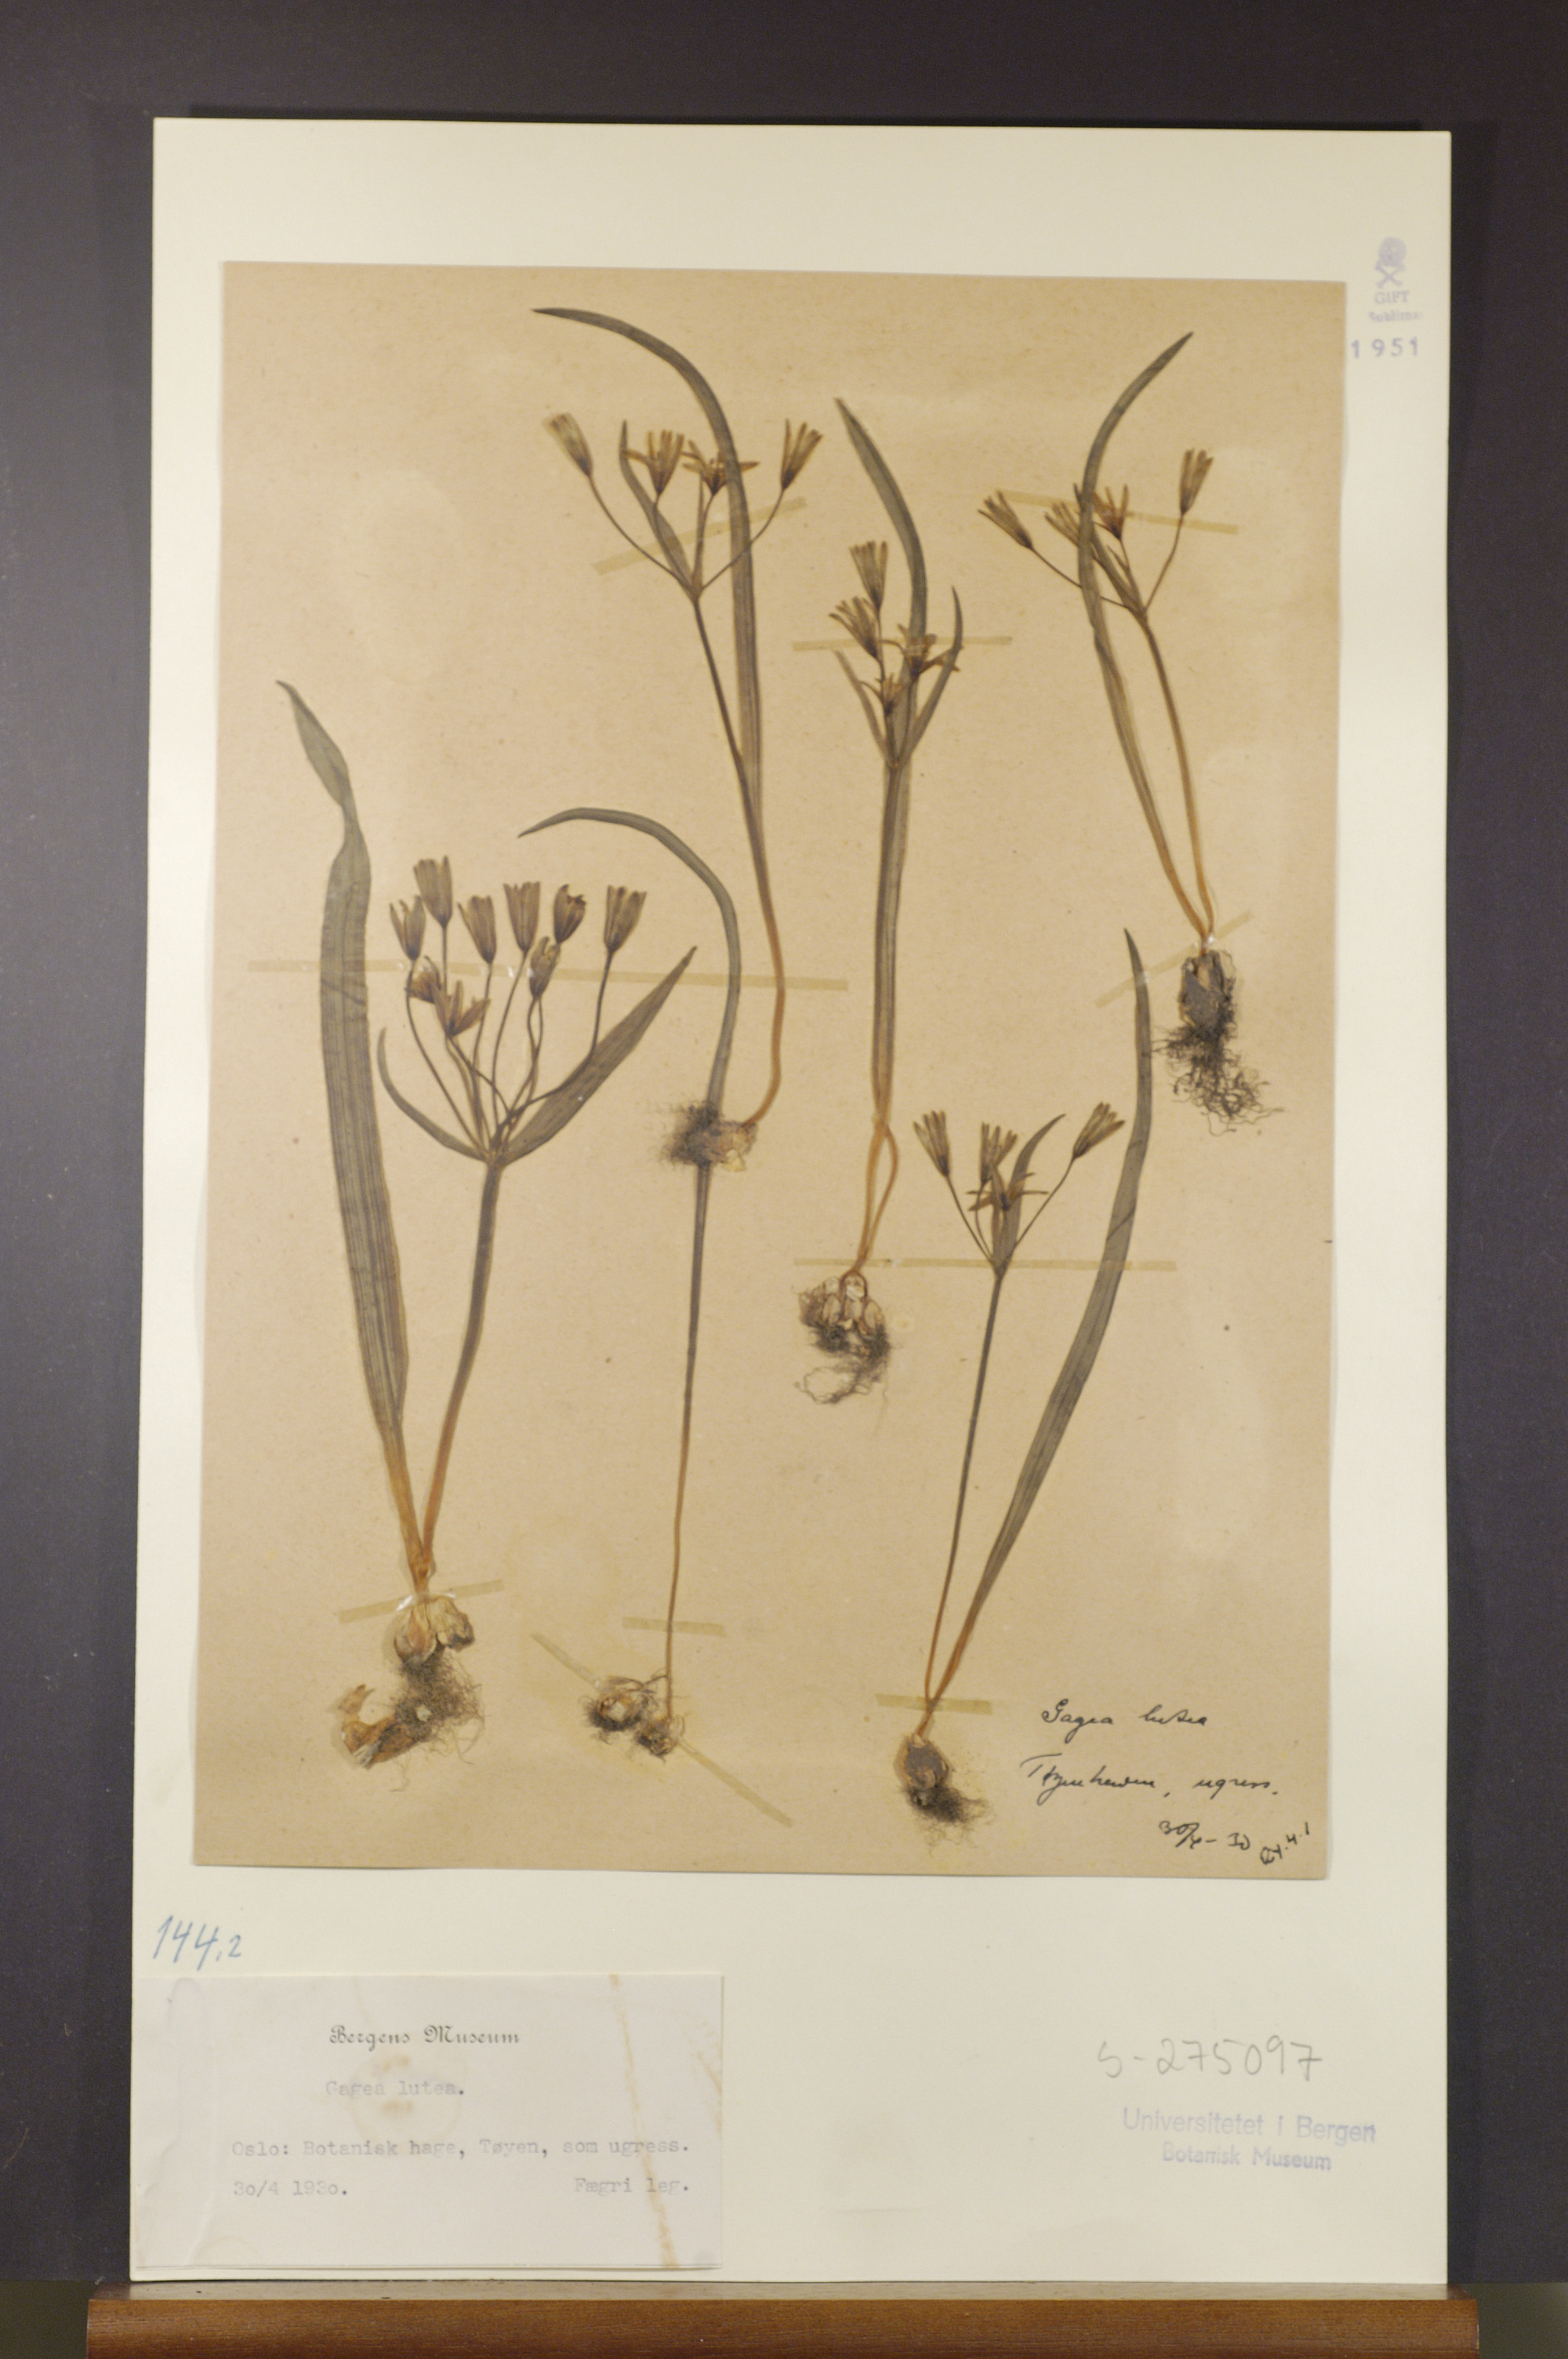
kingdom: Plantae
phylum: Tracheophyta
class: Liliopsida
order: Liliales
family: Liliaceae
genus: Gagea
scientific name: Gagea lutea
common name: Yellow star-of-bethlehem
